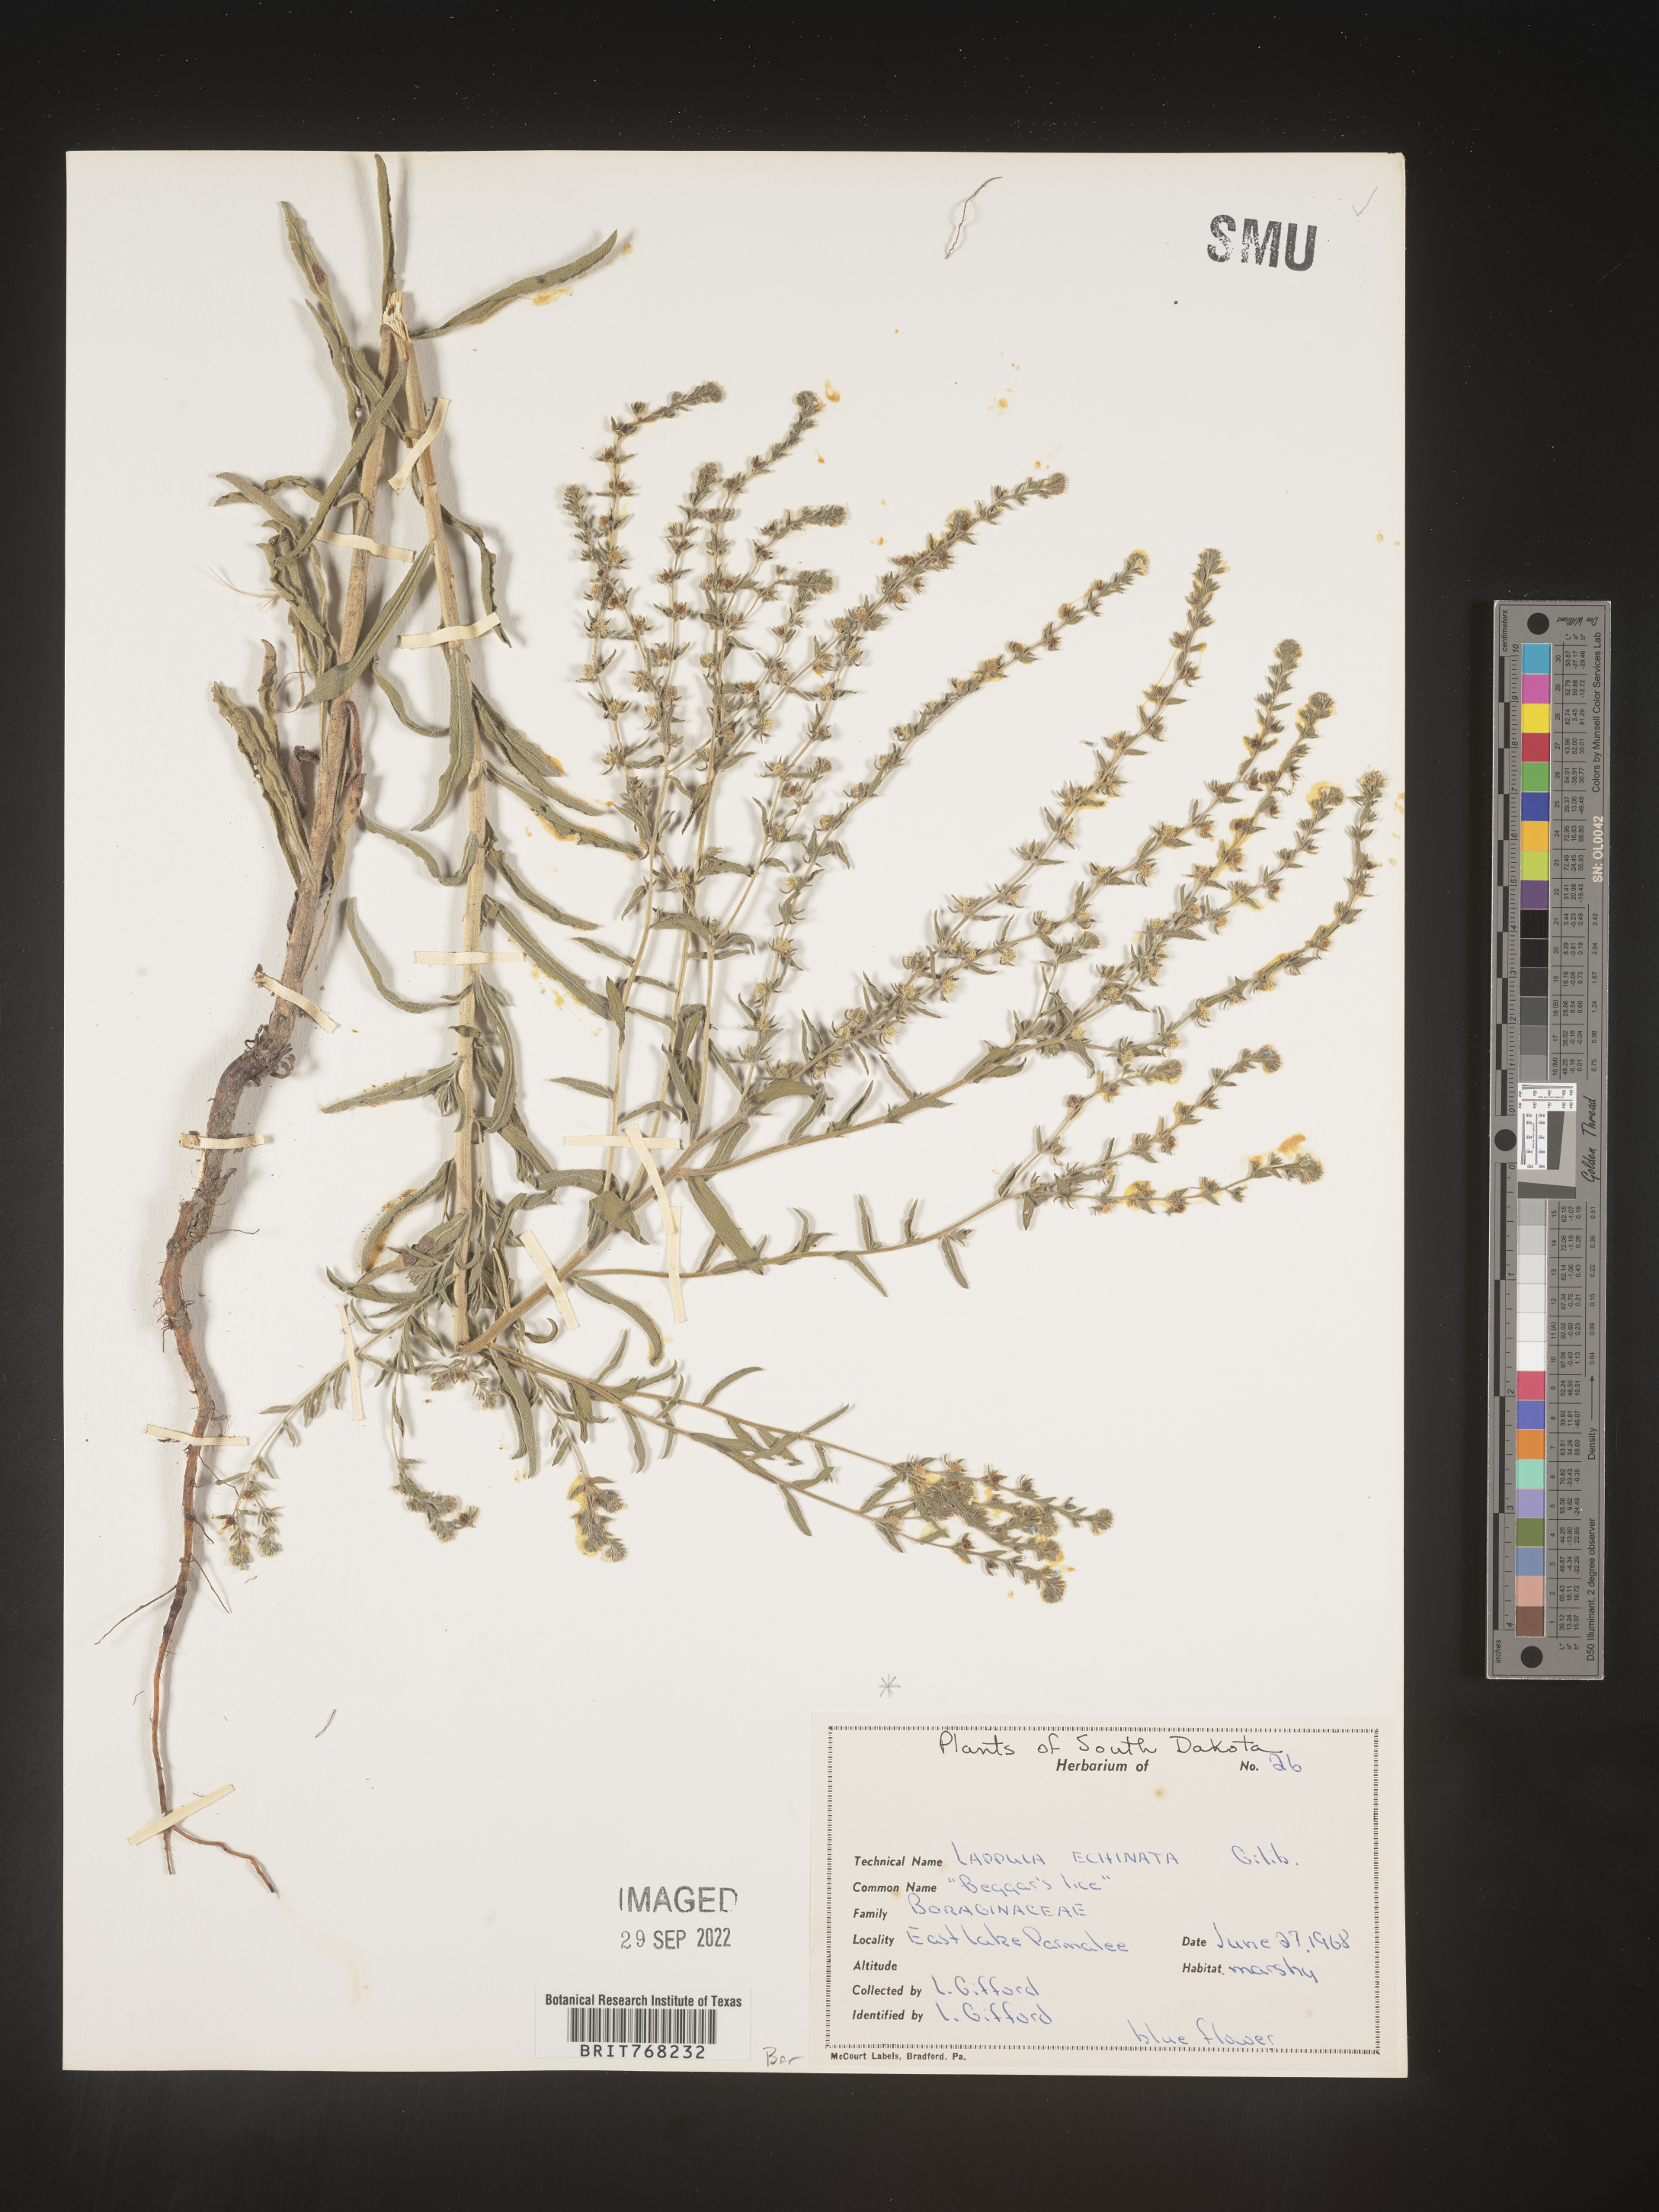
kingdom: Plantae
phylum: Tracheophyta
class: Magnoliopsida
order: Boraginales
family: Boraginaceae
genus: Lappula
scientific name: Lappula
